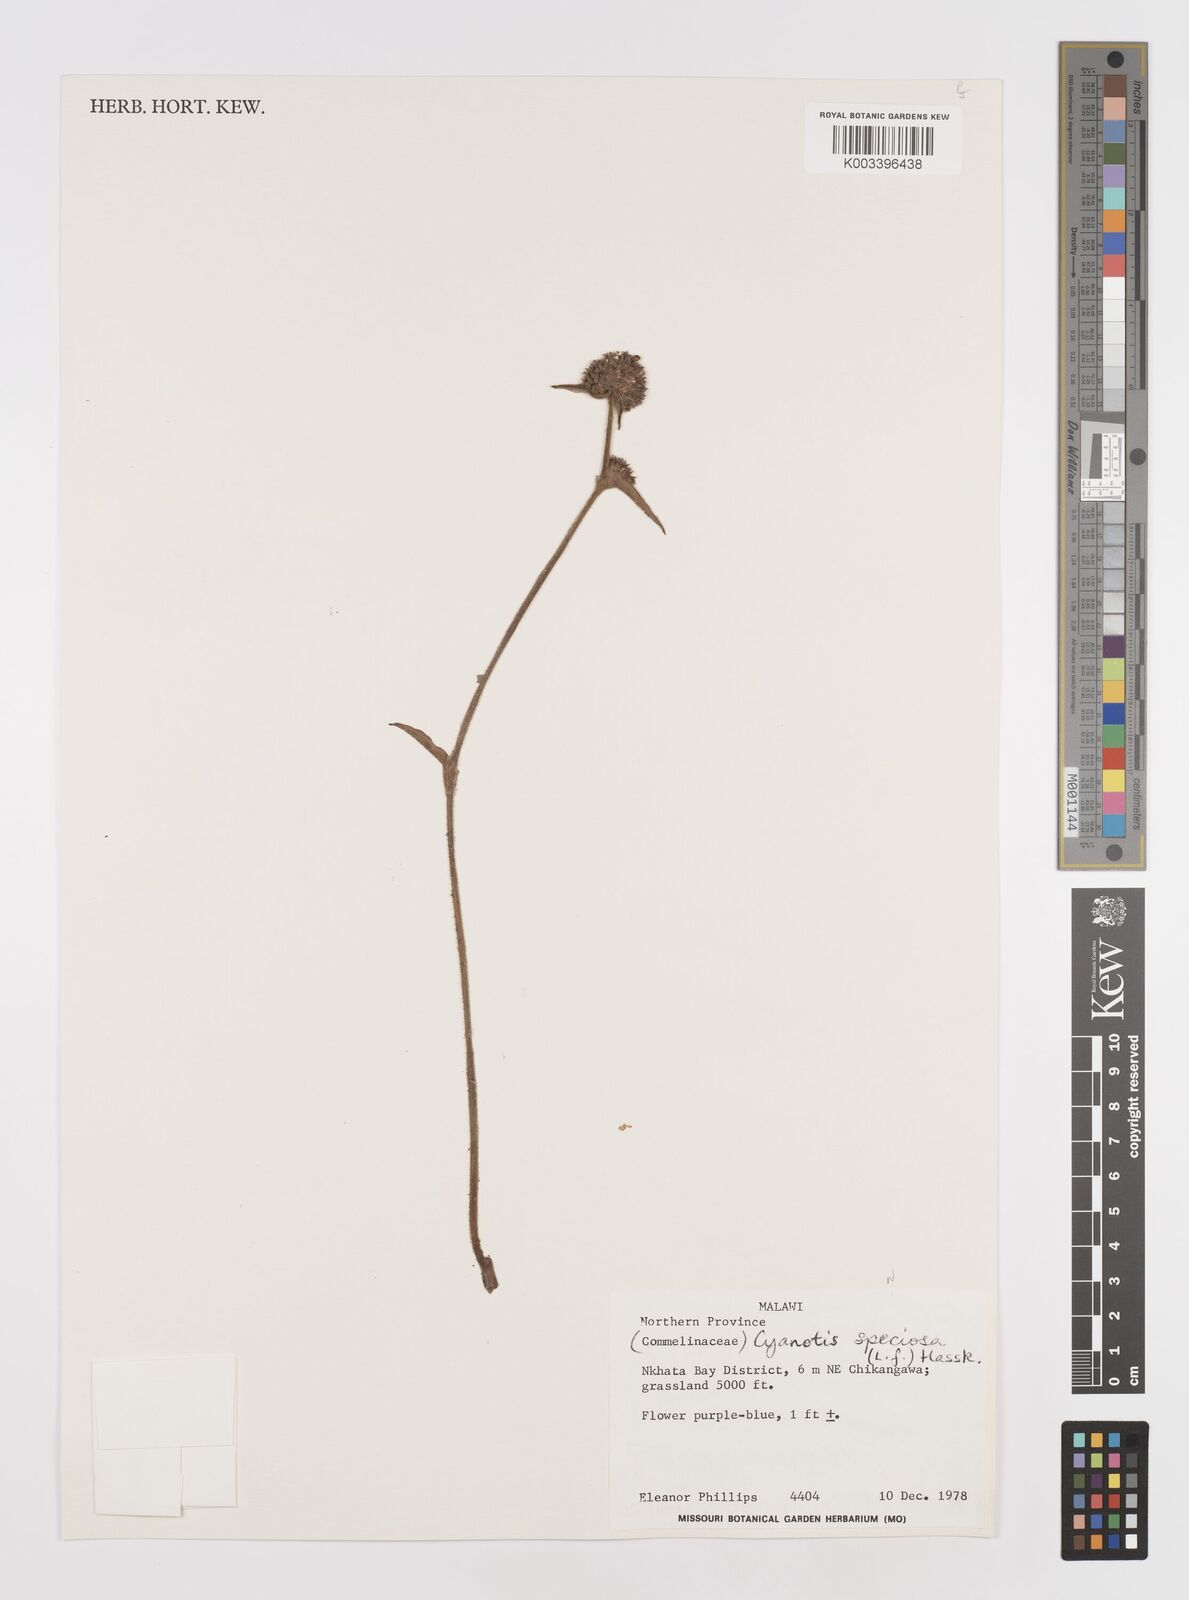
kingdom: Plantae
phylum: Tracheophyta
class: Liliopsida
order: Commelinales
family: Commelinaceae
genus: Cyanotis
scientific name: Cyanotis speciosa
